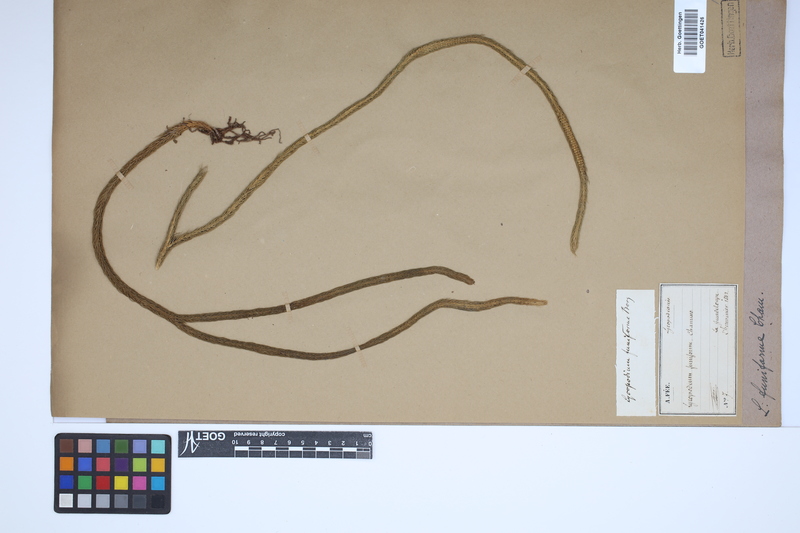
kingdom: Plantae
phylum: Tracheophyta
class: Lycopodiopsida
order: Lycopodiales
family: Lycopodiaceae
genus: Phlegmariurus
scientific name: Phlegmariurus funiformis
